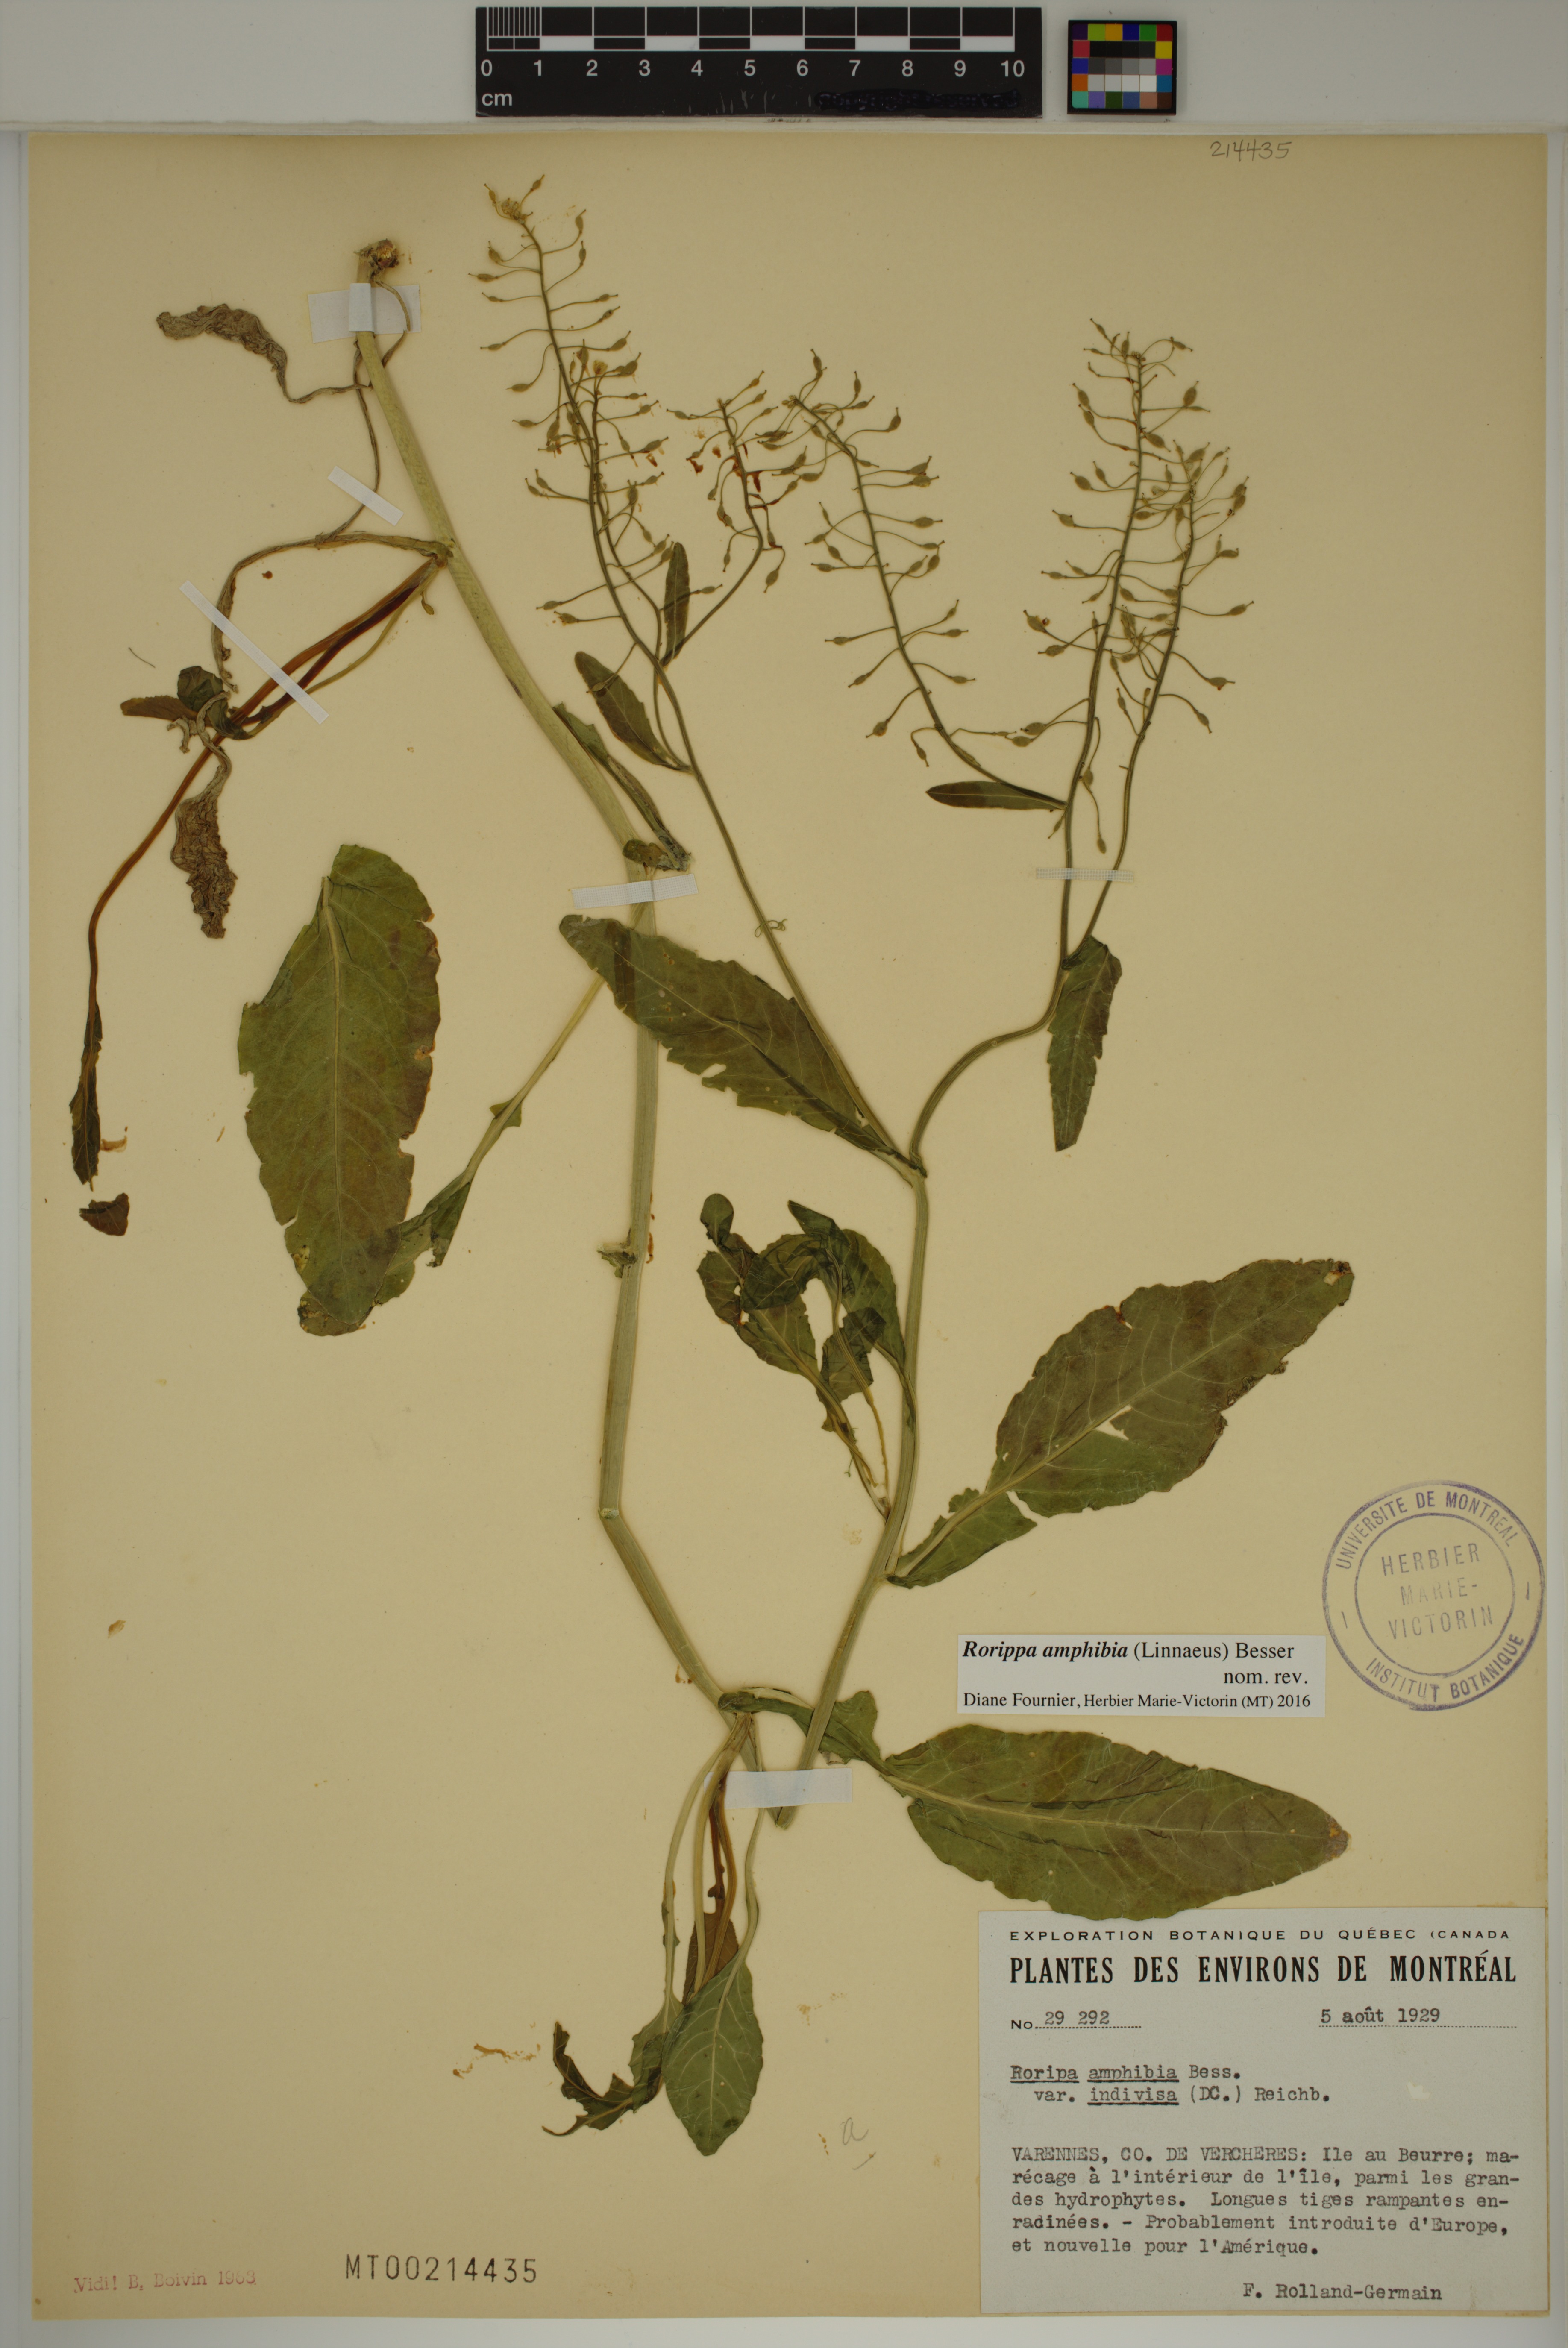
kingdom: Plantae
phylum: Tracheophyta
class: Magnoliopsida
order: Brassicales
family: Brassicaceae
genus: Rorippa
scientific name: Rorippa amphibia
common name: Great yellow-cress
